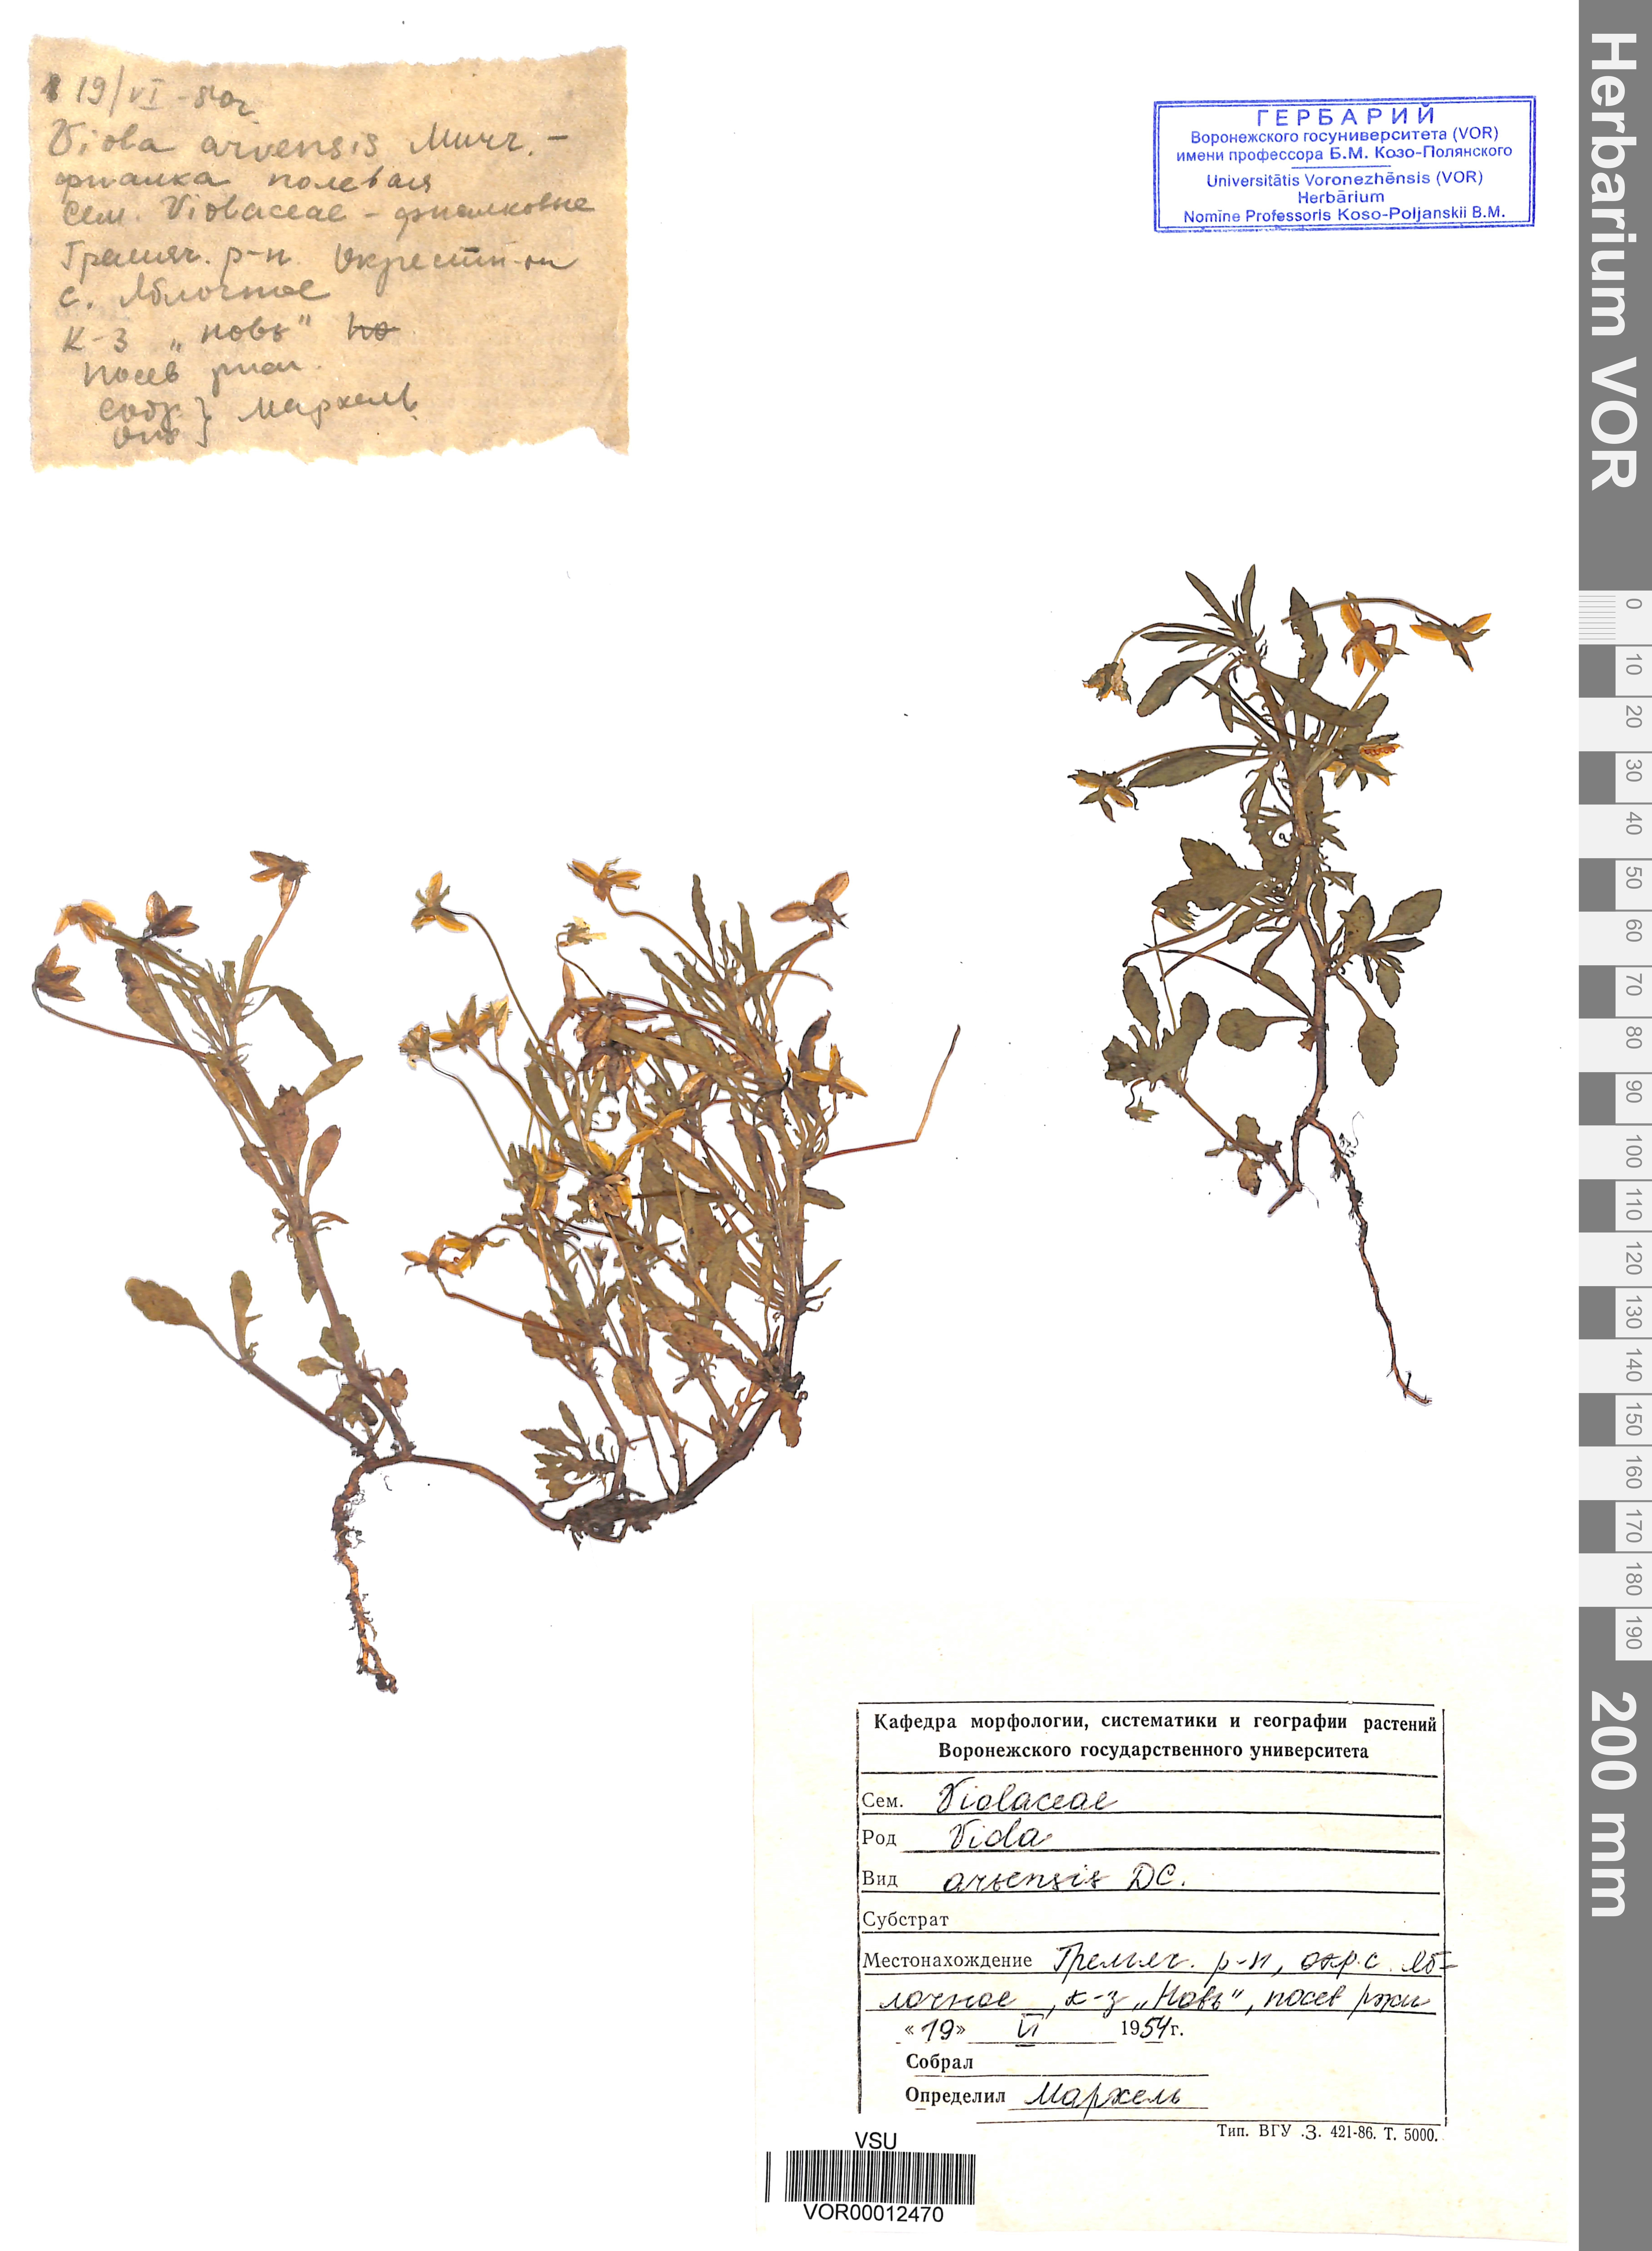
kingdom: Plantae
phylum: Tracheophyta
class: Magnoliopsida
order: Malpighiales
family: Violaceae
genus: Viola
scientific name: Viola arvensis
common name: Field pansy
